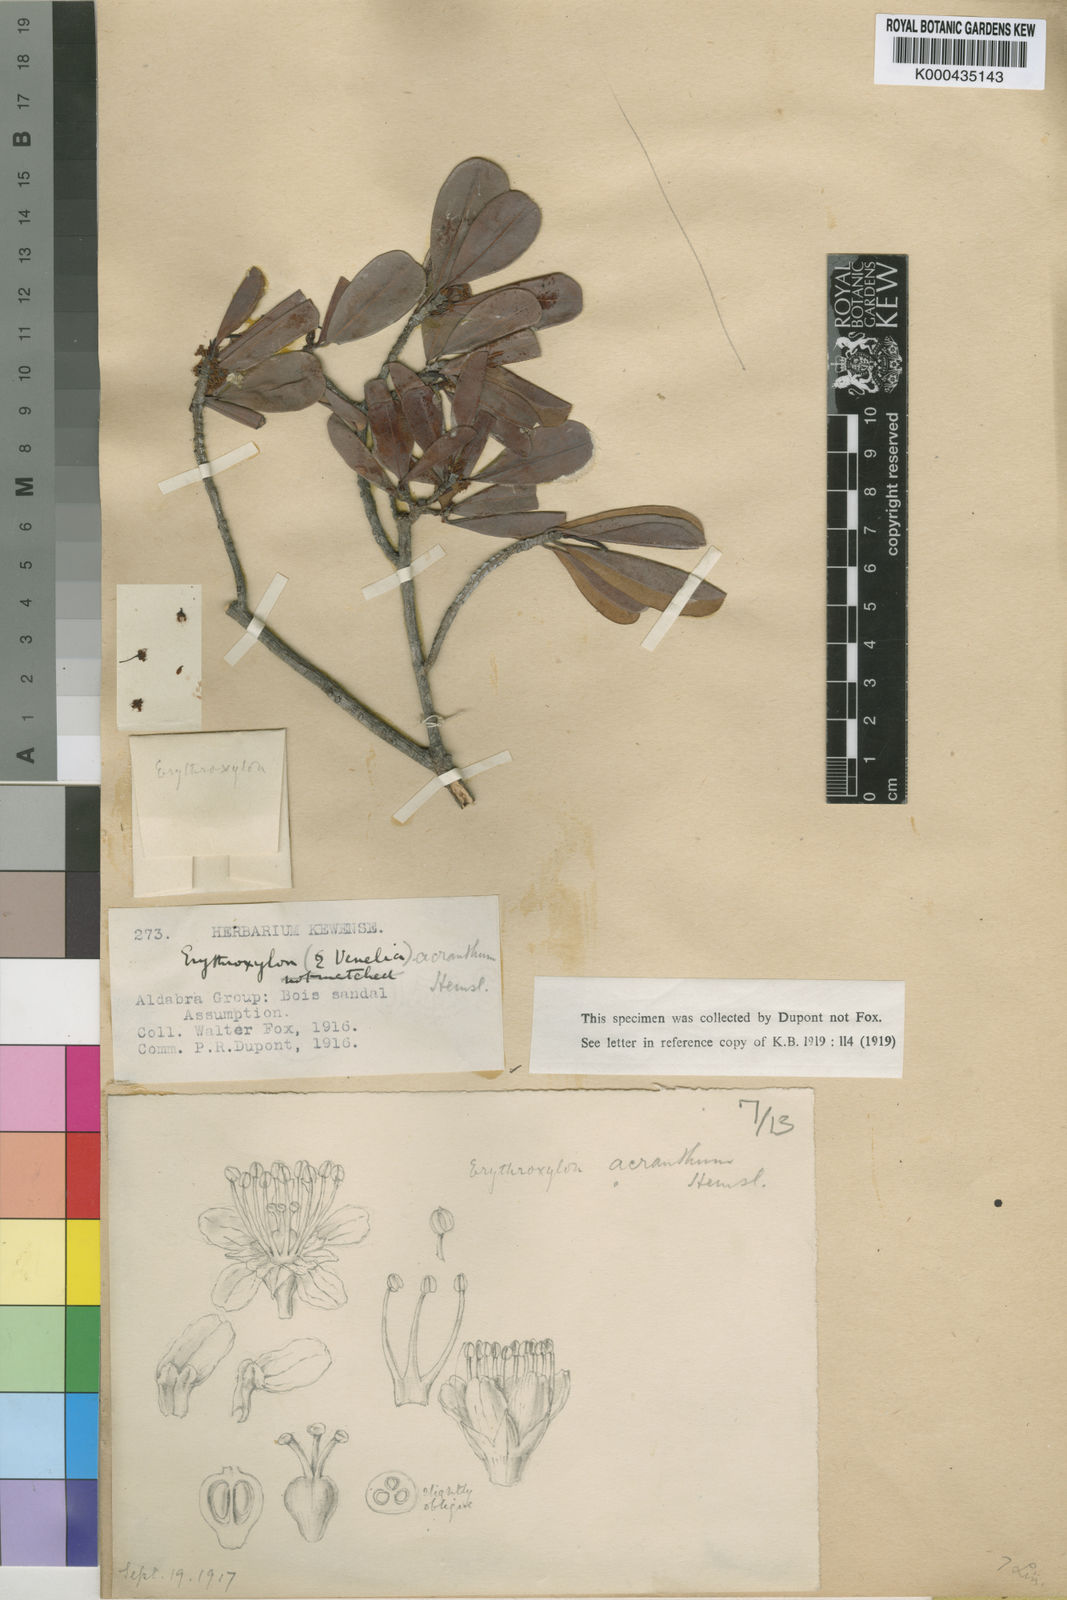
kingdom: Plantae
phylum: Tracheophyta
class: Magnoliopsida
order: Malpighiales
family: Erythroxylaceae
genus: Erythroxylum
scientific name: Erythroxylum platyclados
